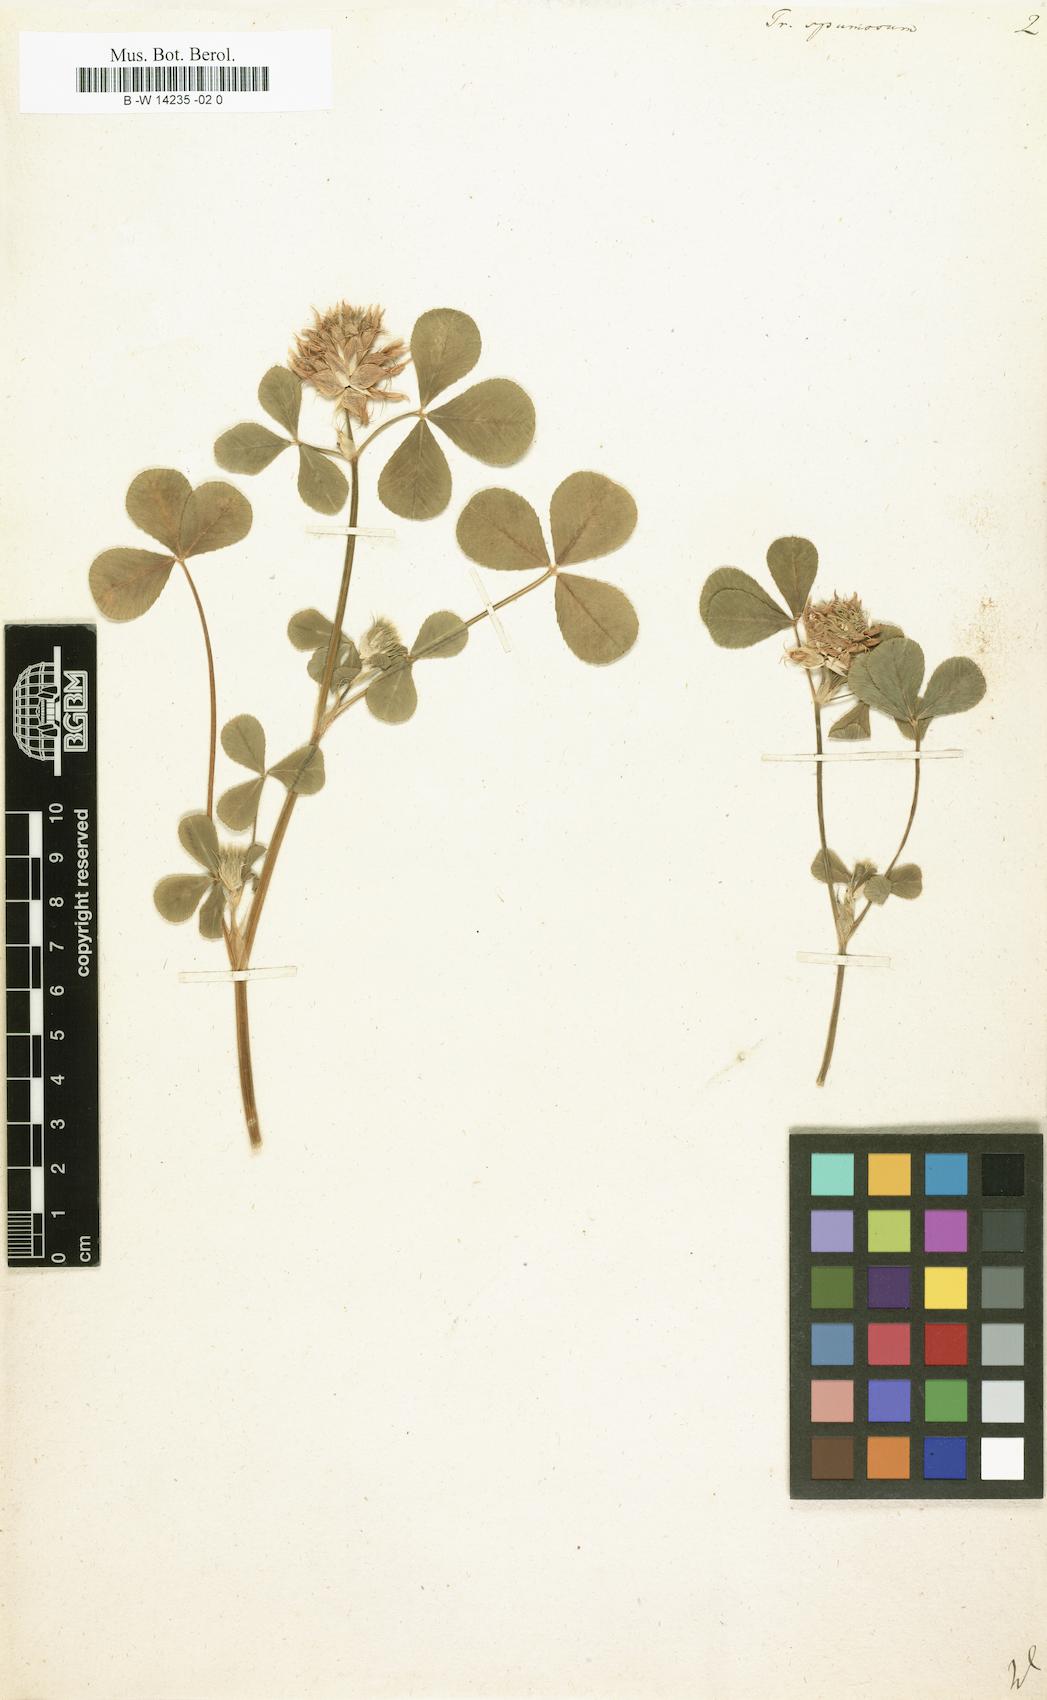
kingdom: Plantae
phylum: Tracheophyta
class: Magnoliopsida
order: Fabales
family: Fabaceae
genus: Trifolium
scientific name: Trifolium spumosum
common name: Mediterranean clover
